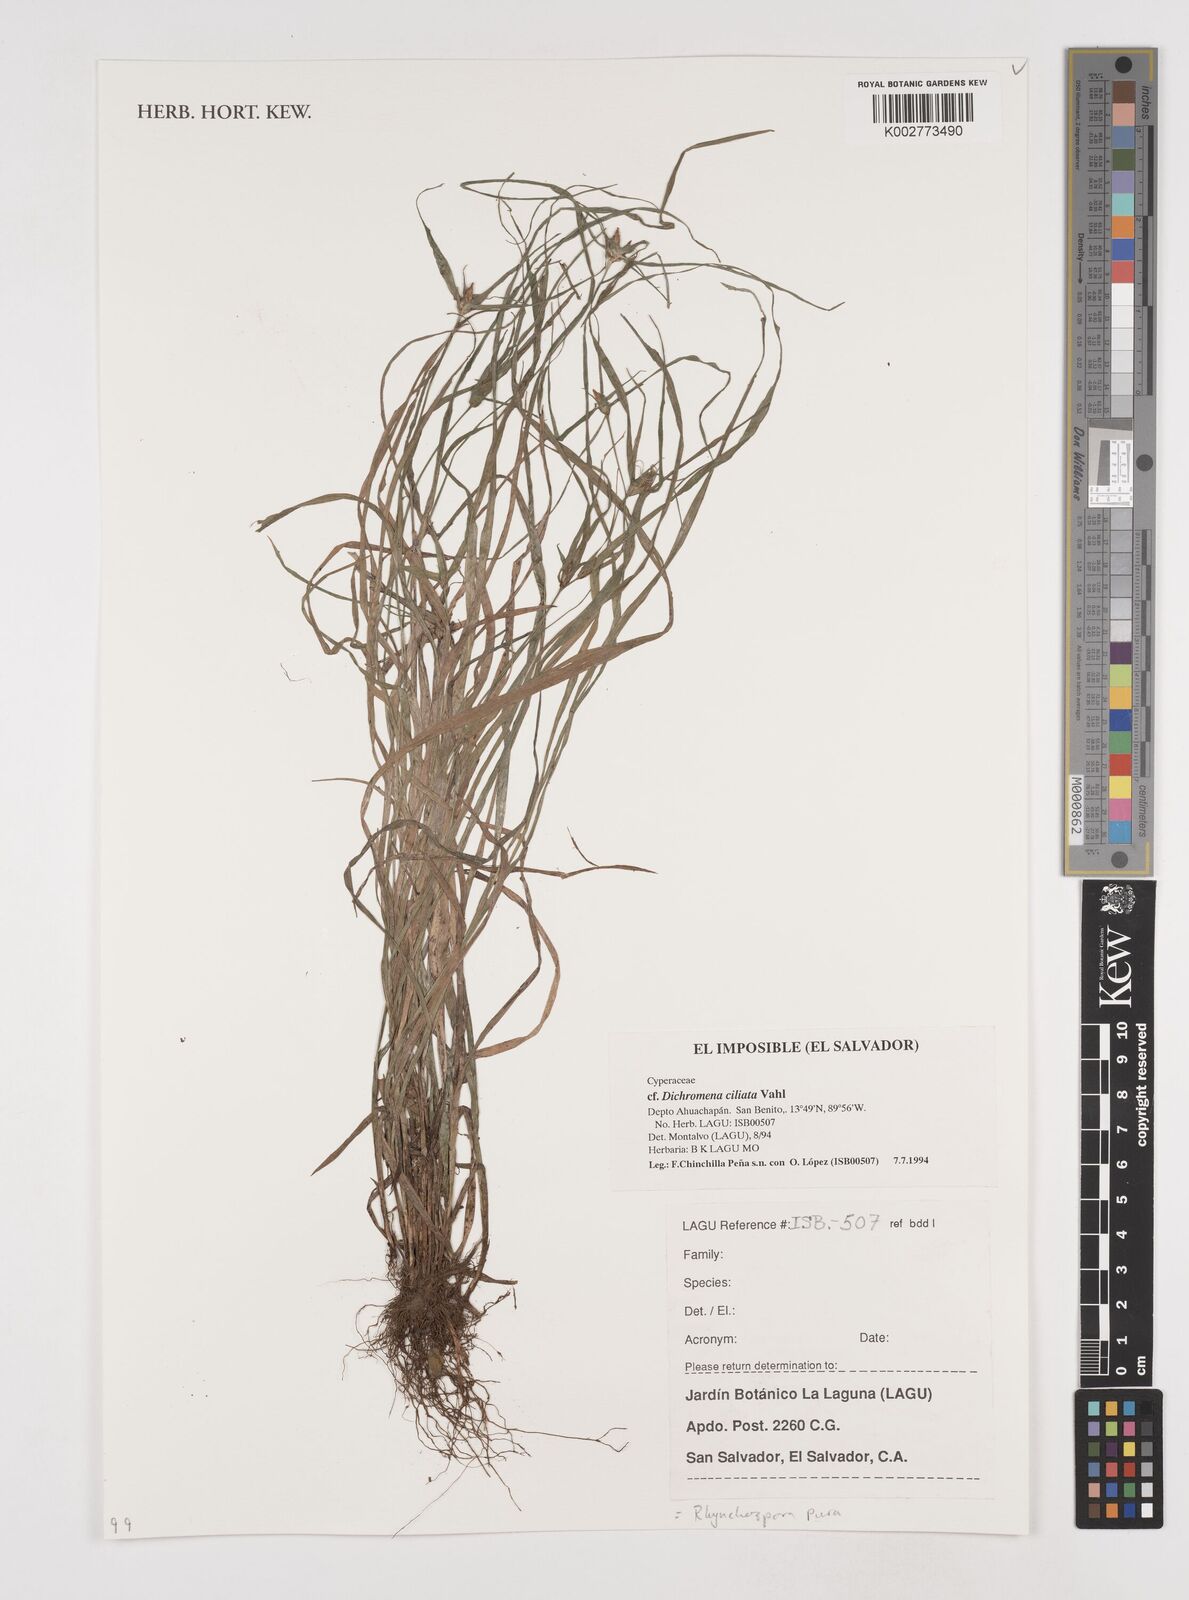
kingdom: Plantae
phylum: Tracheophyta
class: Liliopsida
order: Poales
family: Cyperaceae
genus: Rhynchospora
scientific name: Rhynchospora
